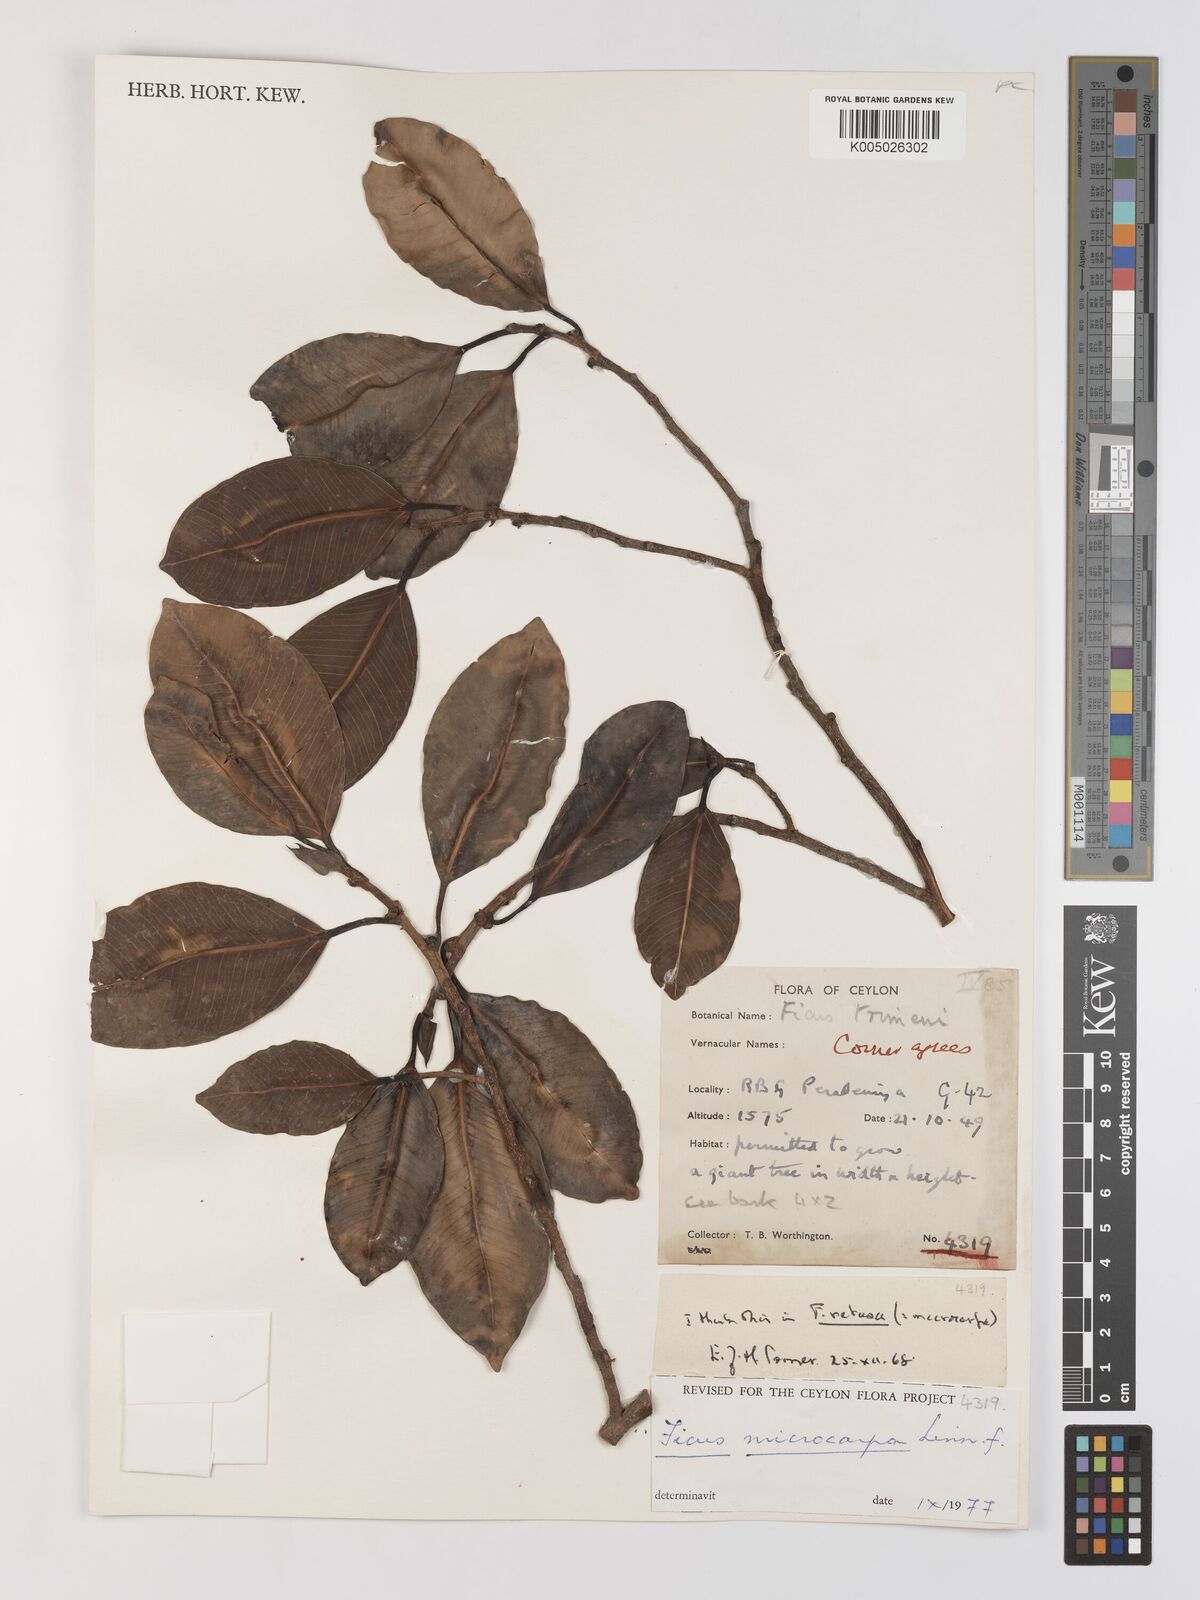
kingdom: Plantae
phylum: Tracheophyta
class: Magnoliopsida
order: Rosales
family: Moraceae
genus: Ficus
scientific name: Ficus
